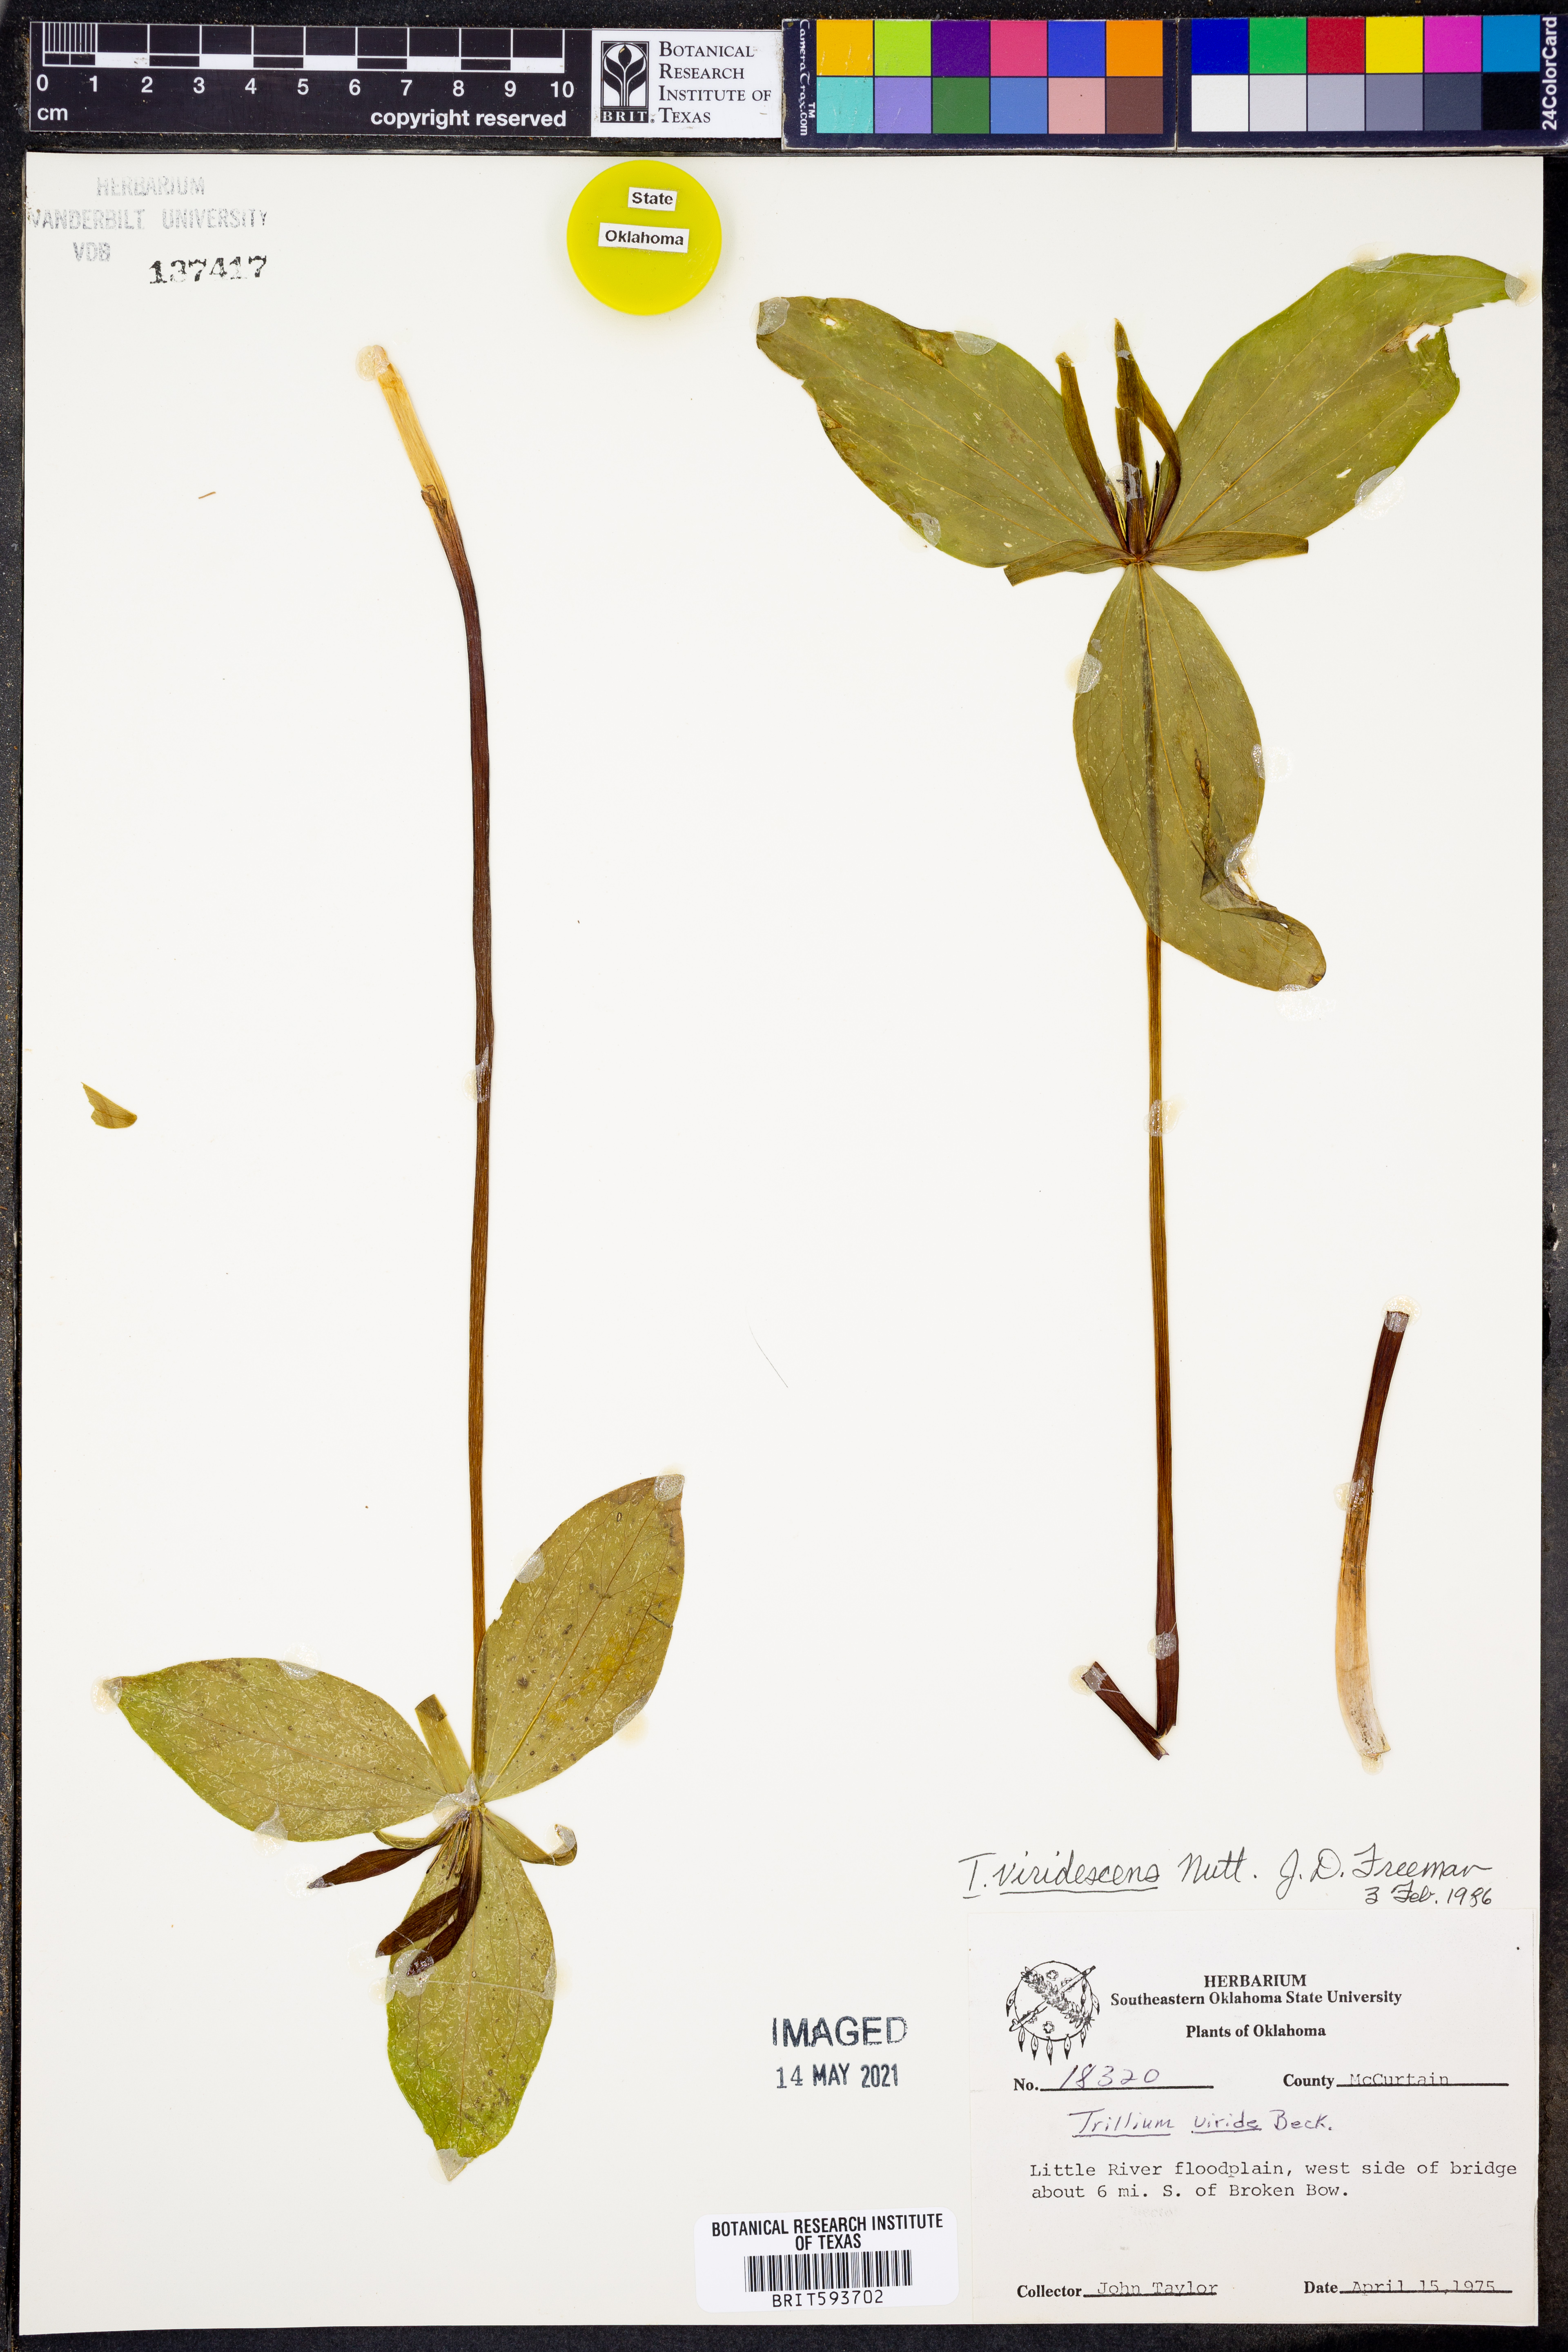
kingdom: Plantae
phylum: Tracheophyta
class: Liliopsida
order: Liliales
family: Melanthiaceae
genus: Trillium
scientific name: Trillium viridescens
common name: Ozark green trillium
